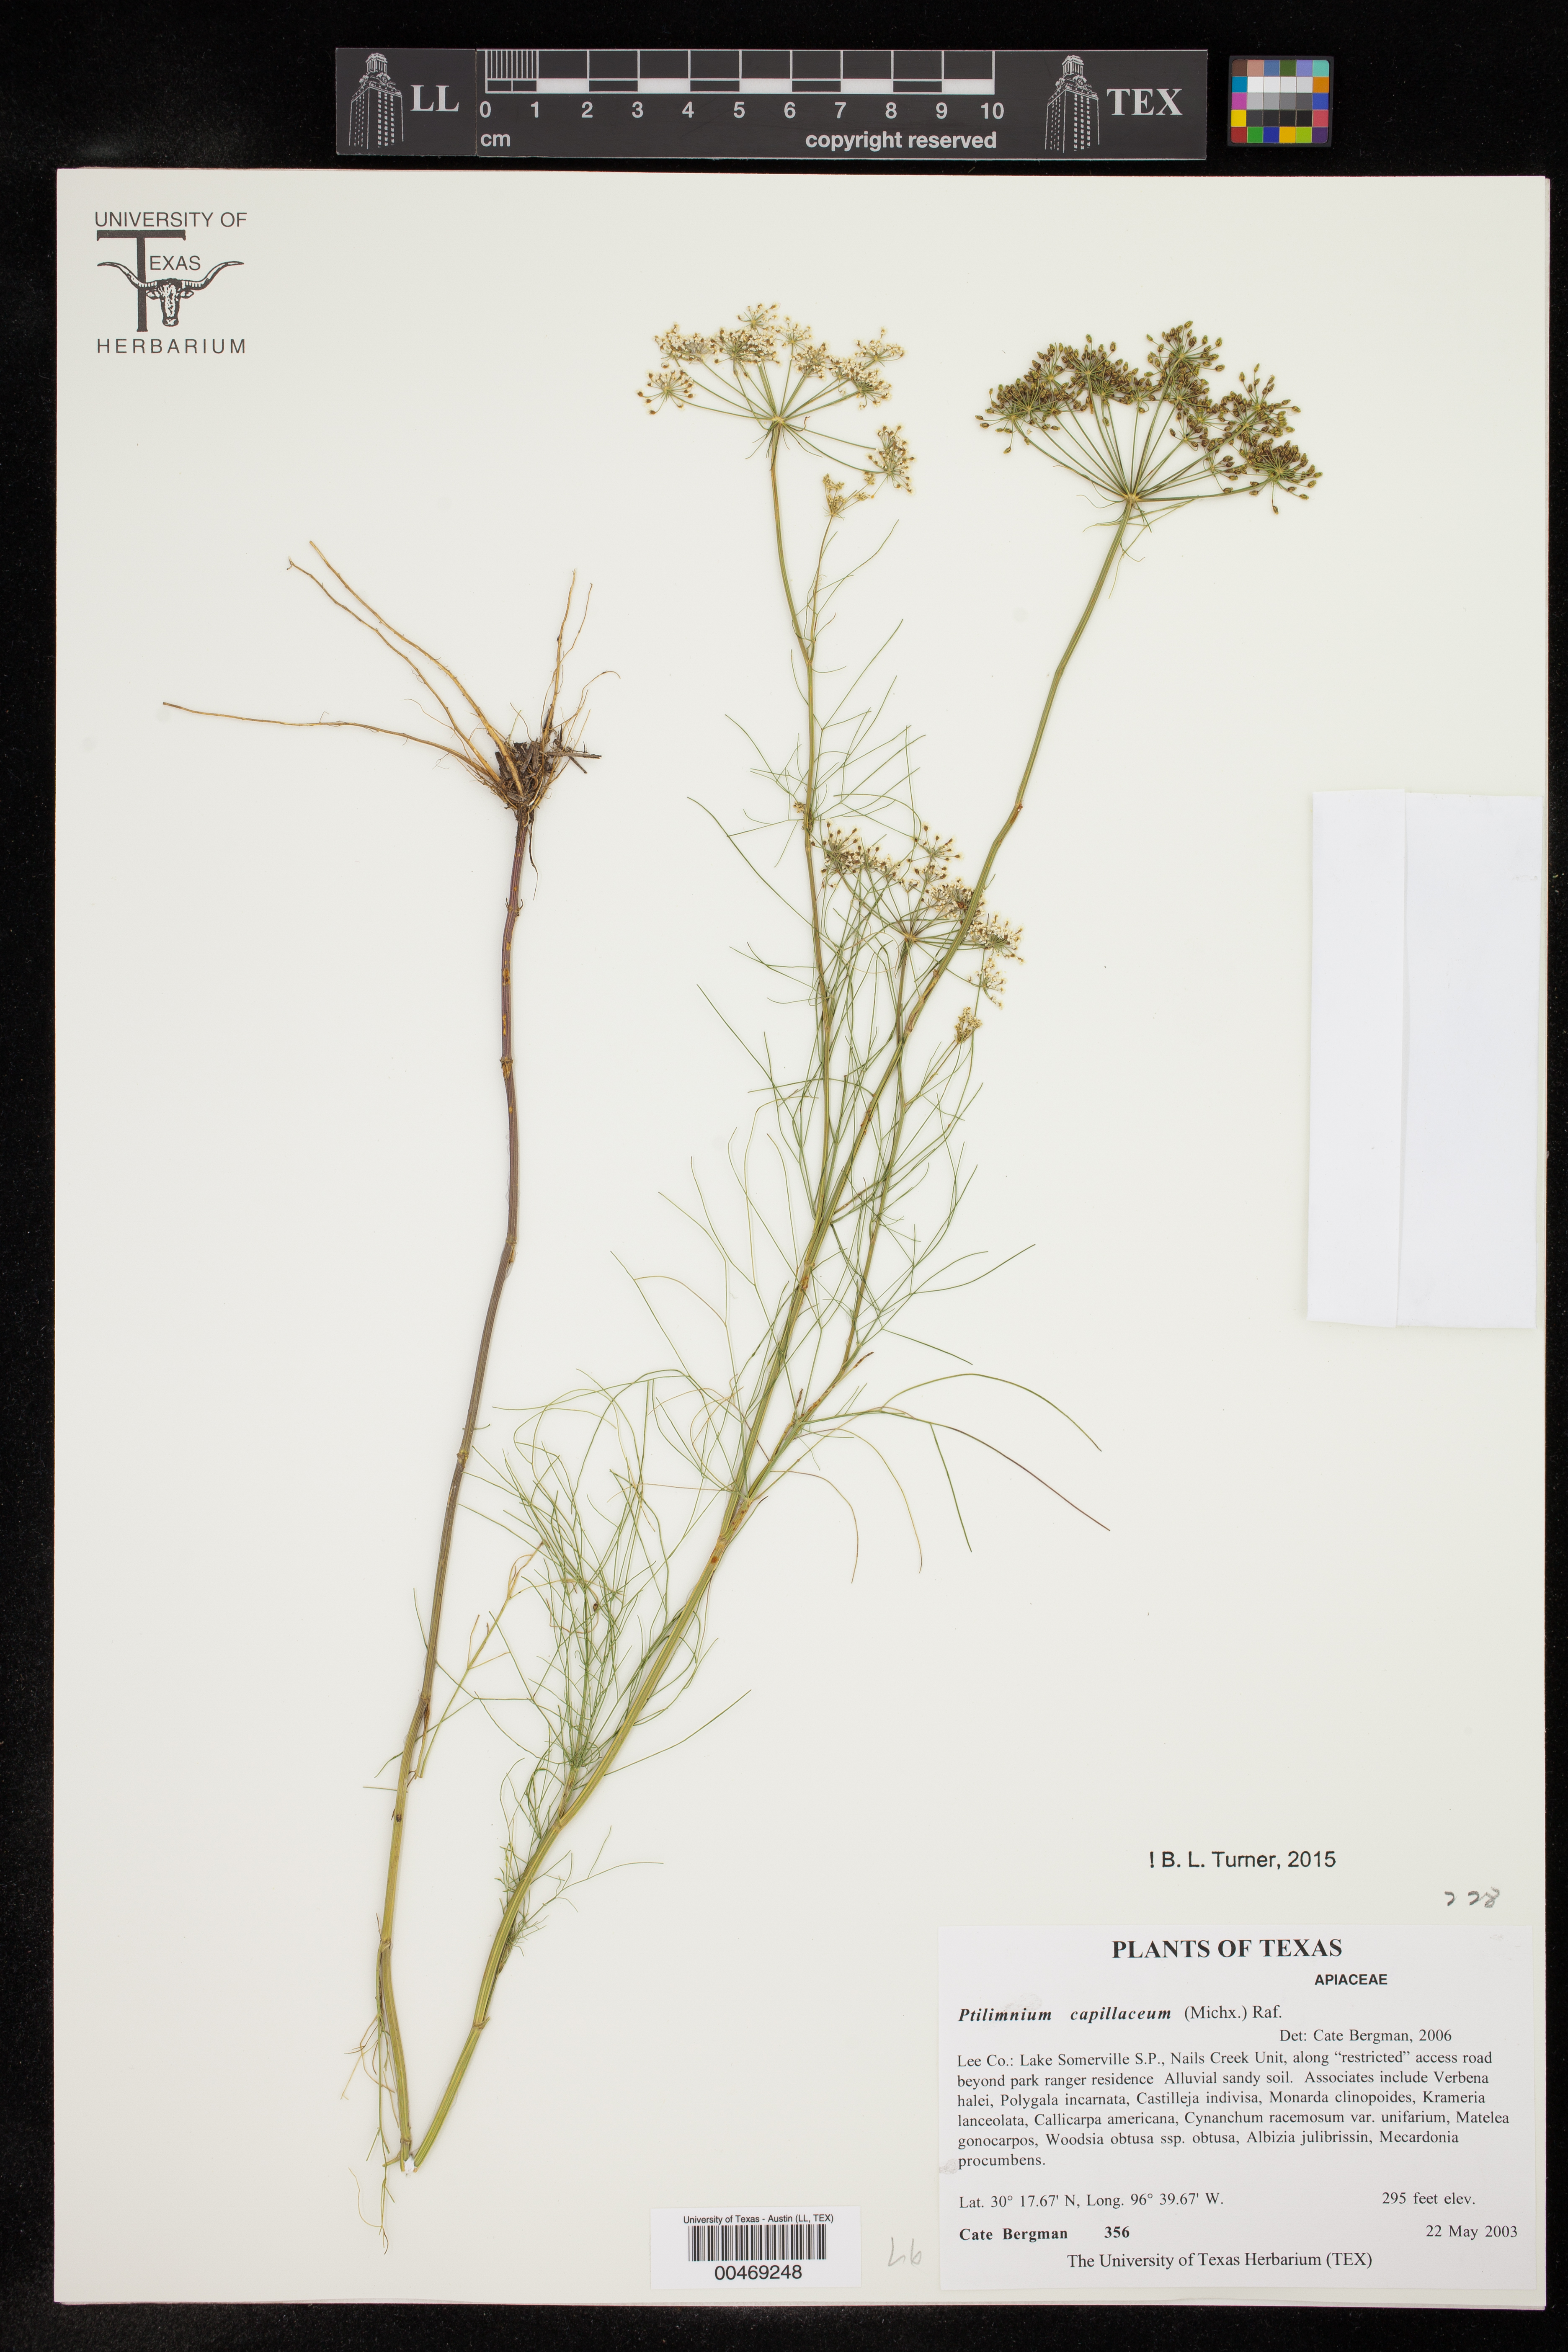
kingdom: Plantae
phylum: Tracheophyta
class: Magnoliopsida
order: Apiales
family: Apiaceae
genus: Ptilimnium
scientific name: Ptilimnium capillaceum
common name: Herbwilliam
